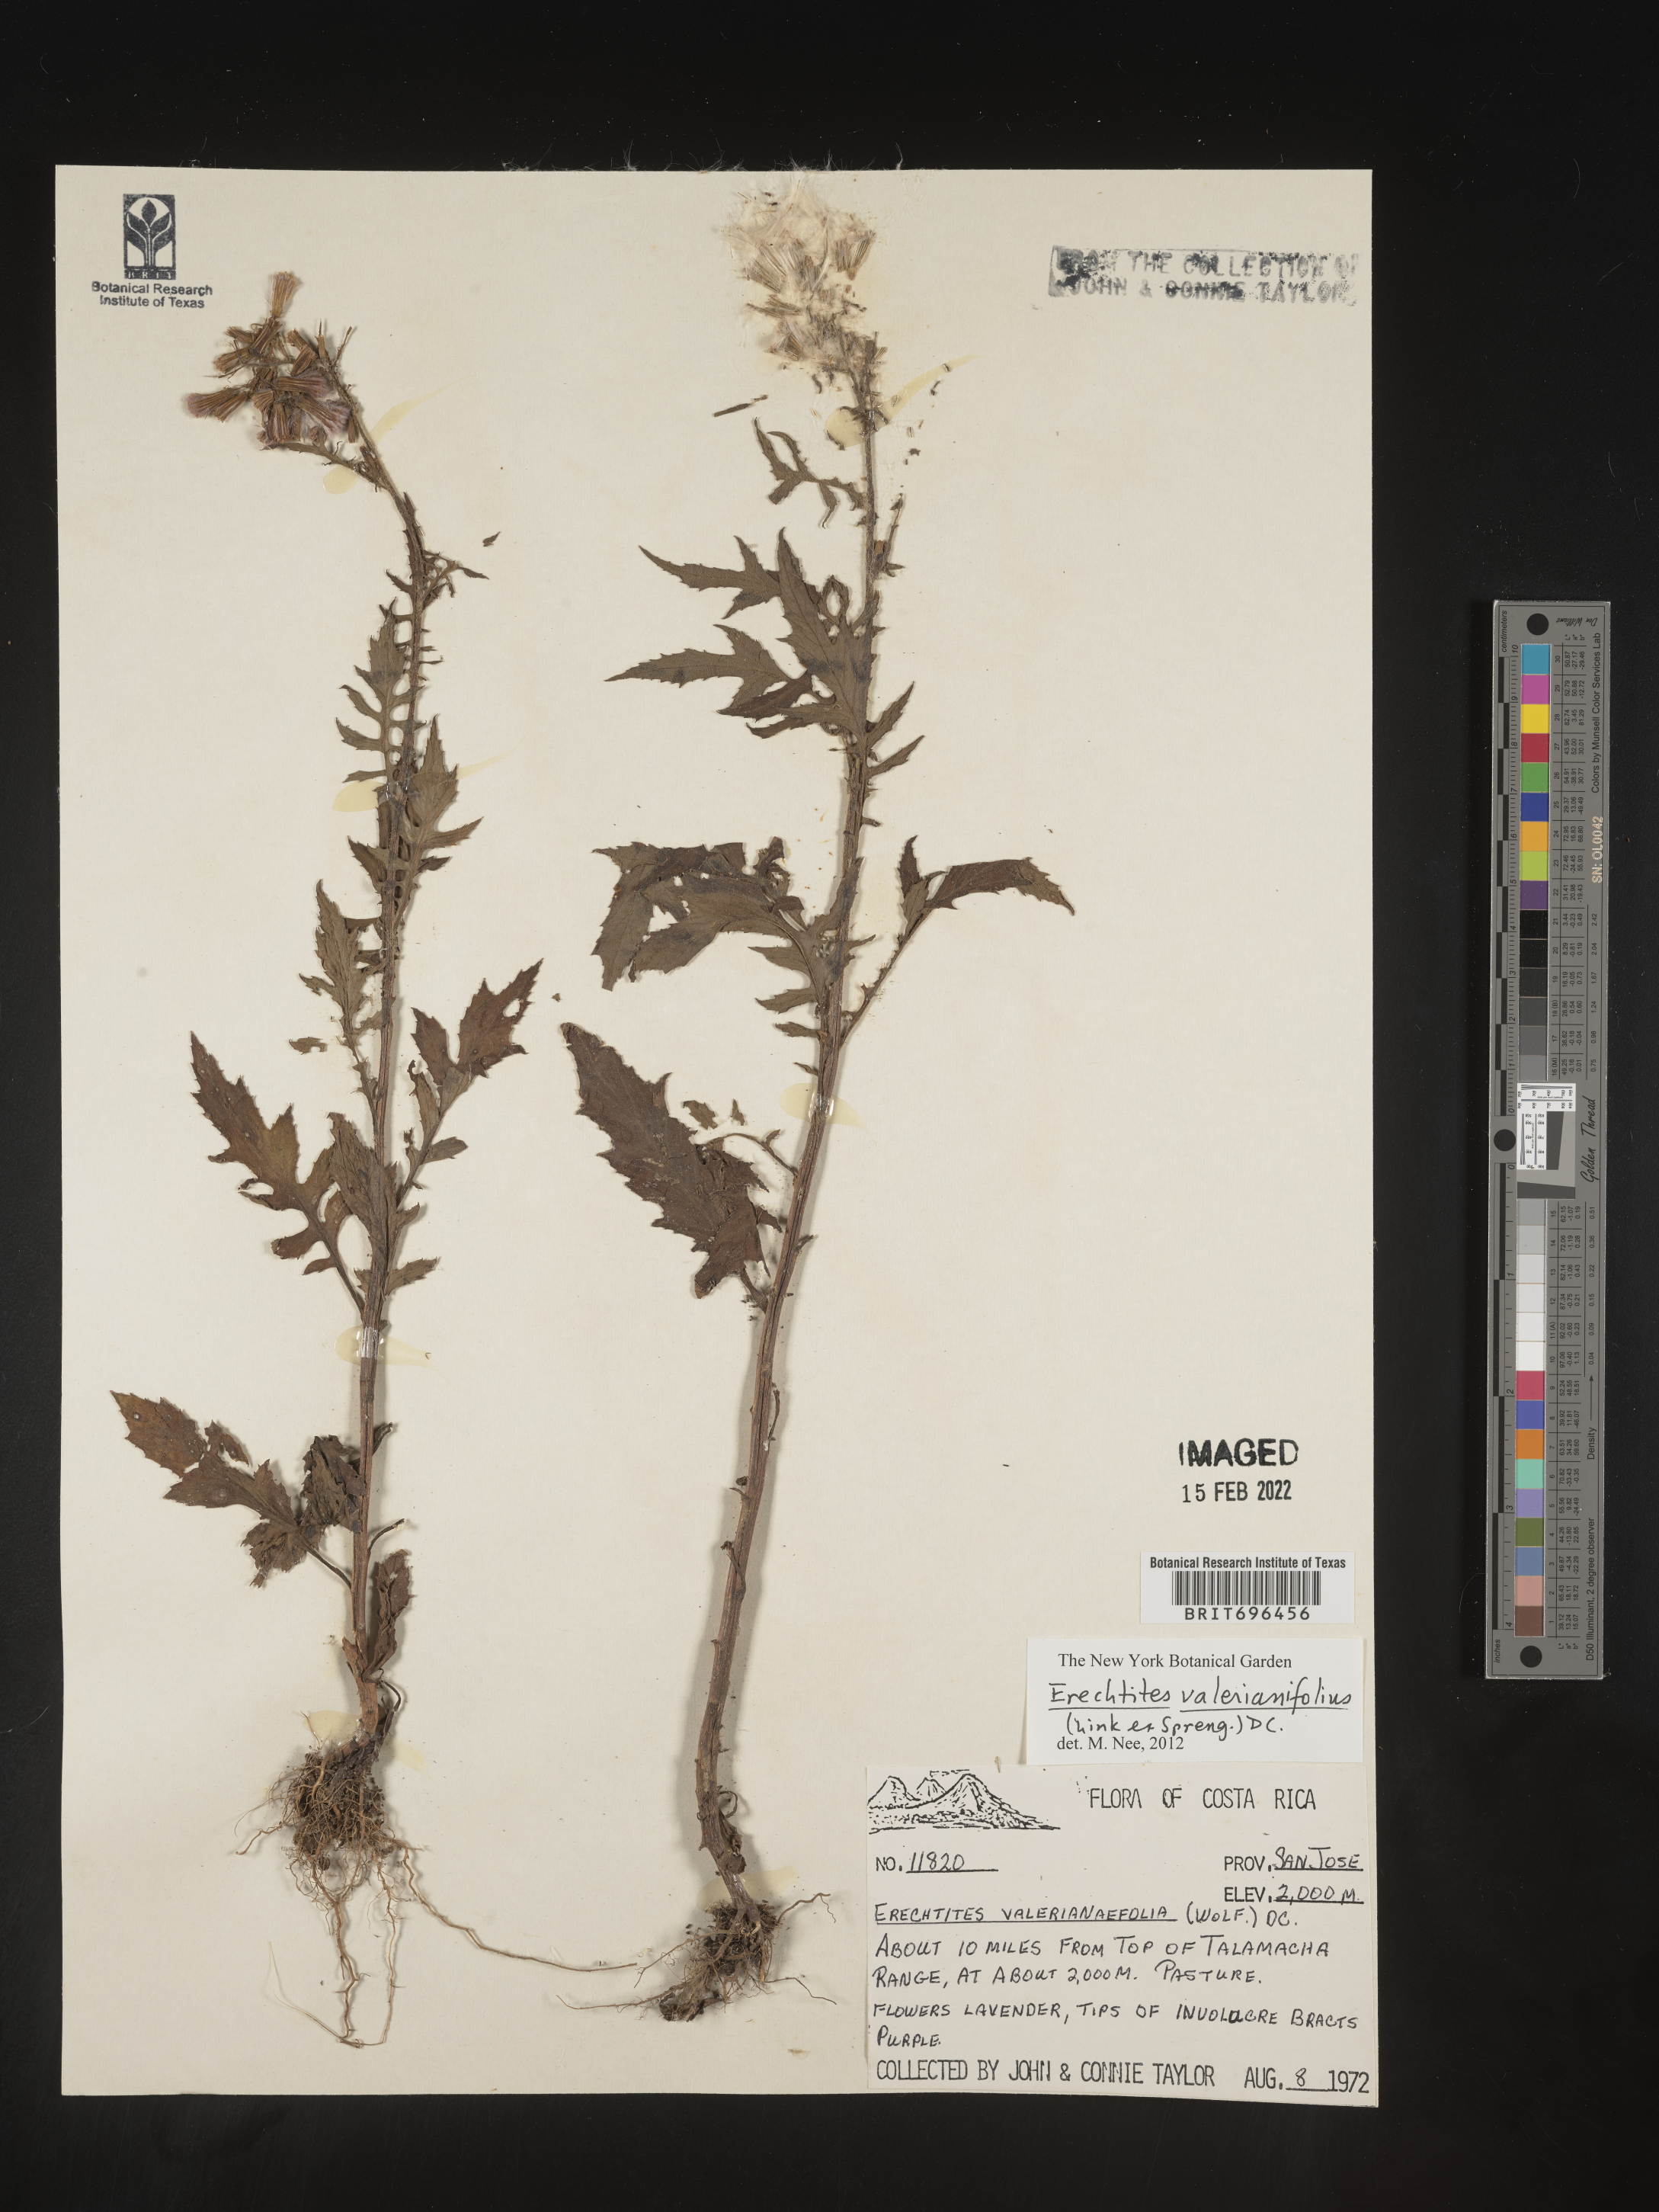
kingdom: Plantae
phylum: Tracheophyta
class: Magnoliopsida
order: Asterales
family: Asteraceae
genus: Erechtites
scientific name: Erechtites
